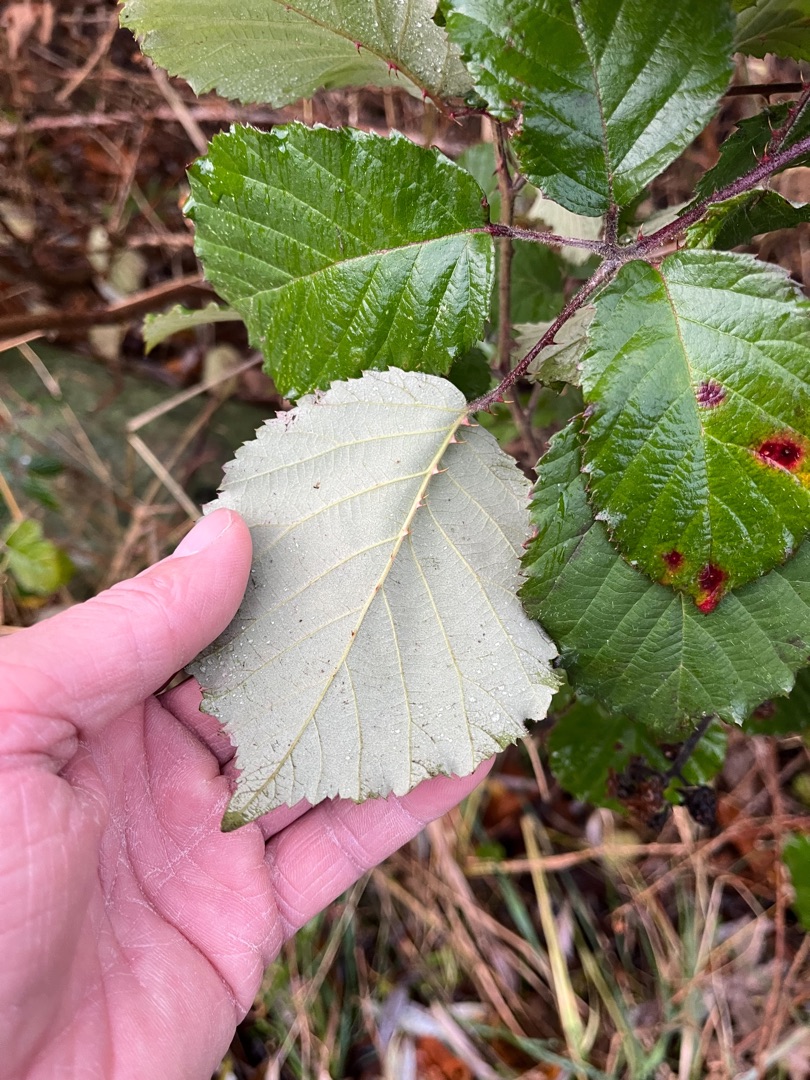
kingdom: Plantae
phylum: Tracheophyta
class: Magnoliopsida
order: Rosales
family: Rosaceae
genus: Rubus
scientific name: Rubus vestitus
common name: Rundbladet brombær
